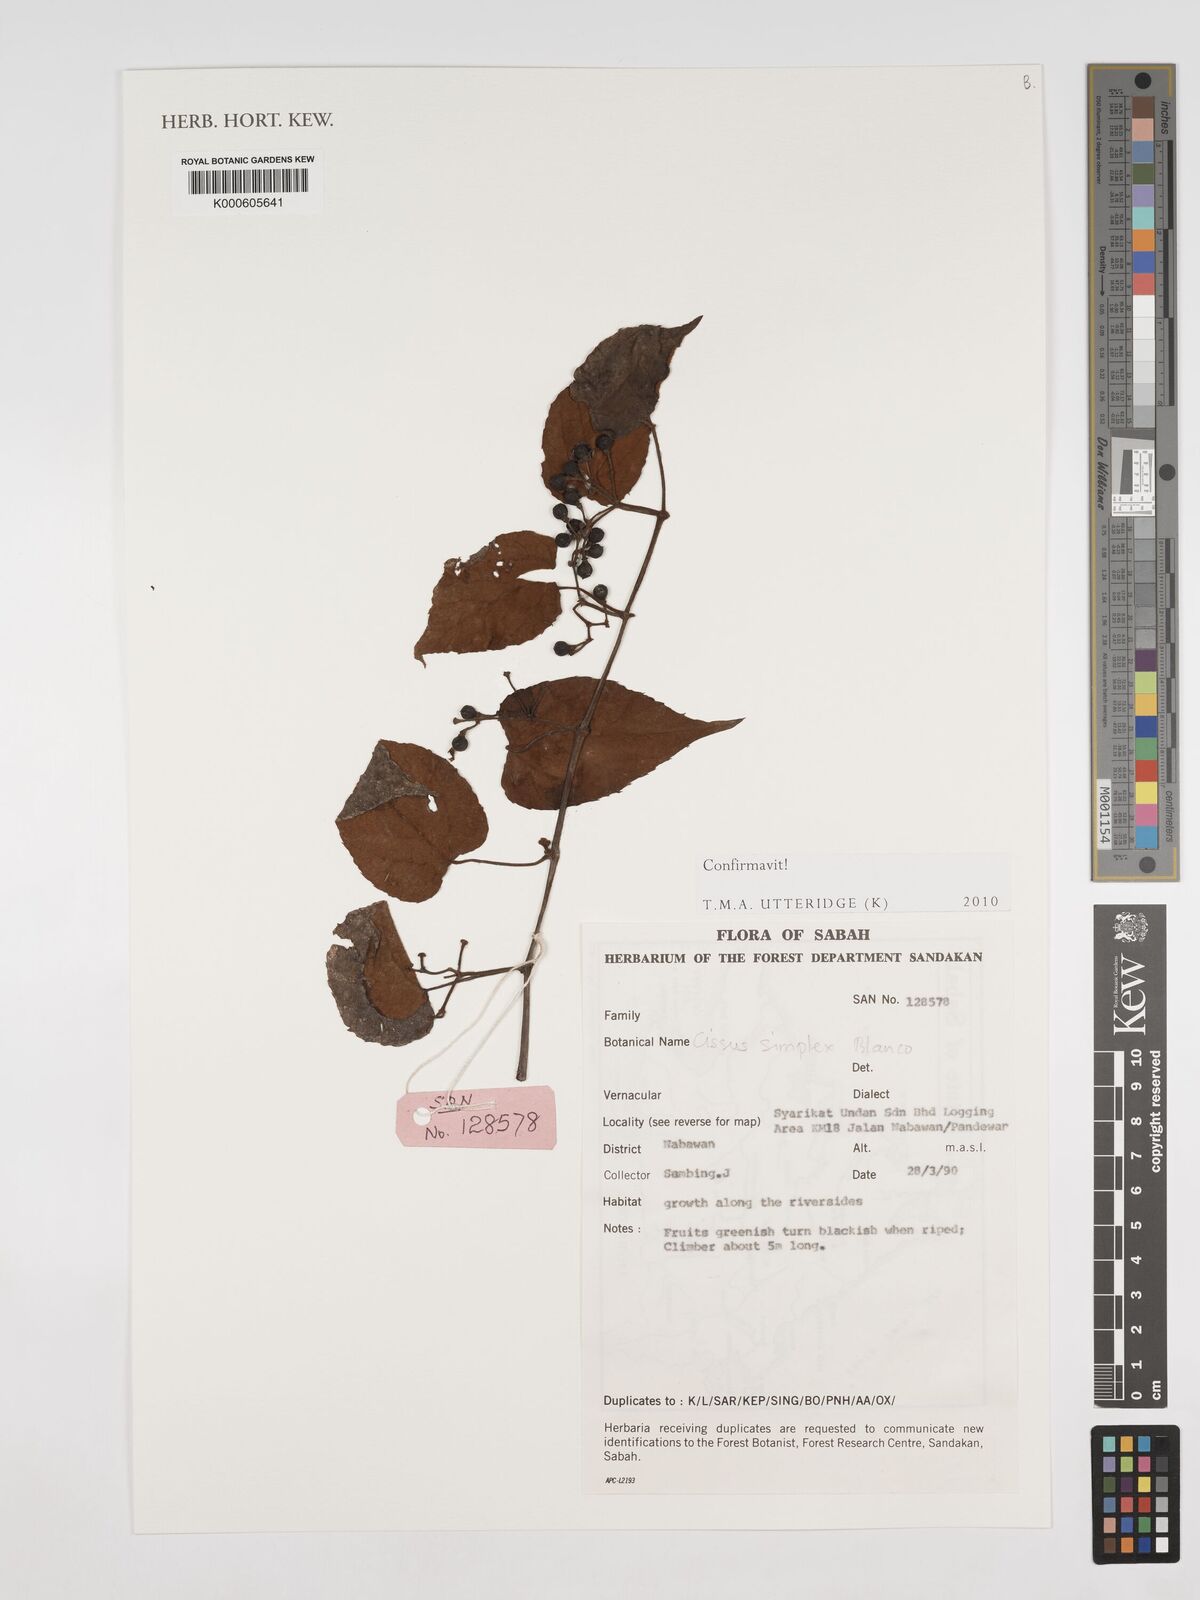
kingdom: Plantae
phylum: Tracheophyta
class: Magnoliopsida
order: Vitales
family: Vitaceae
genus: Cissus
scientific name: Cissus aristata
